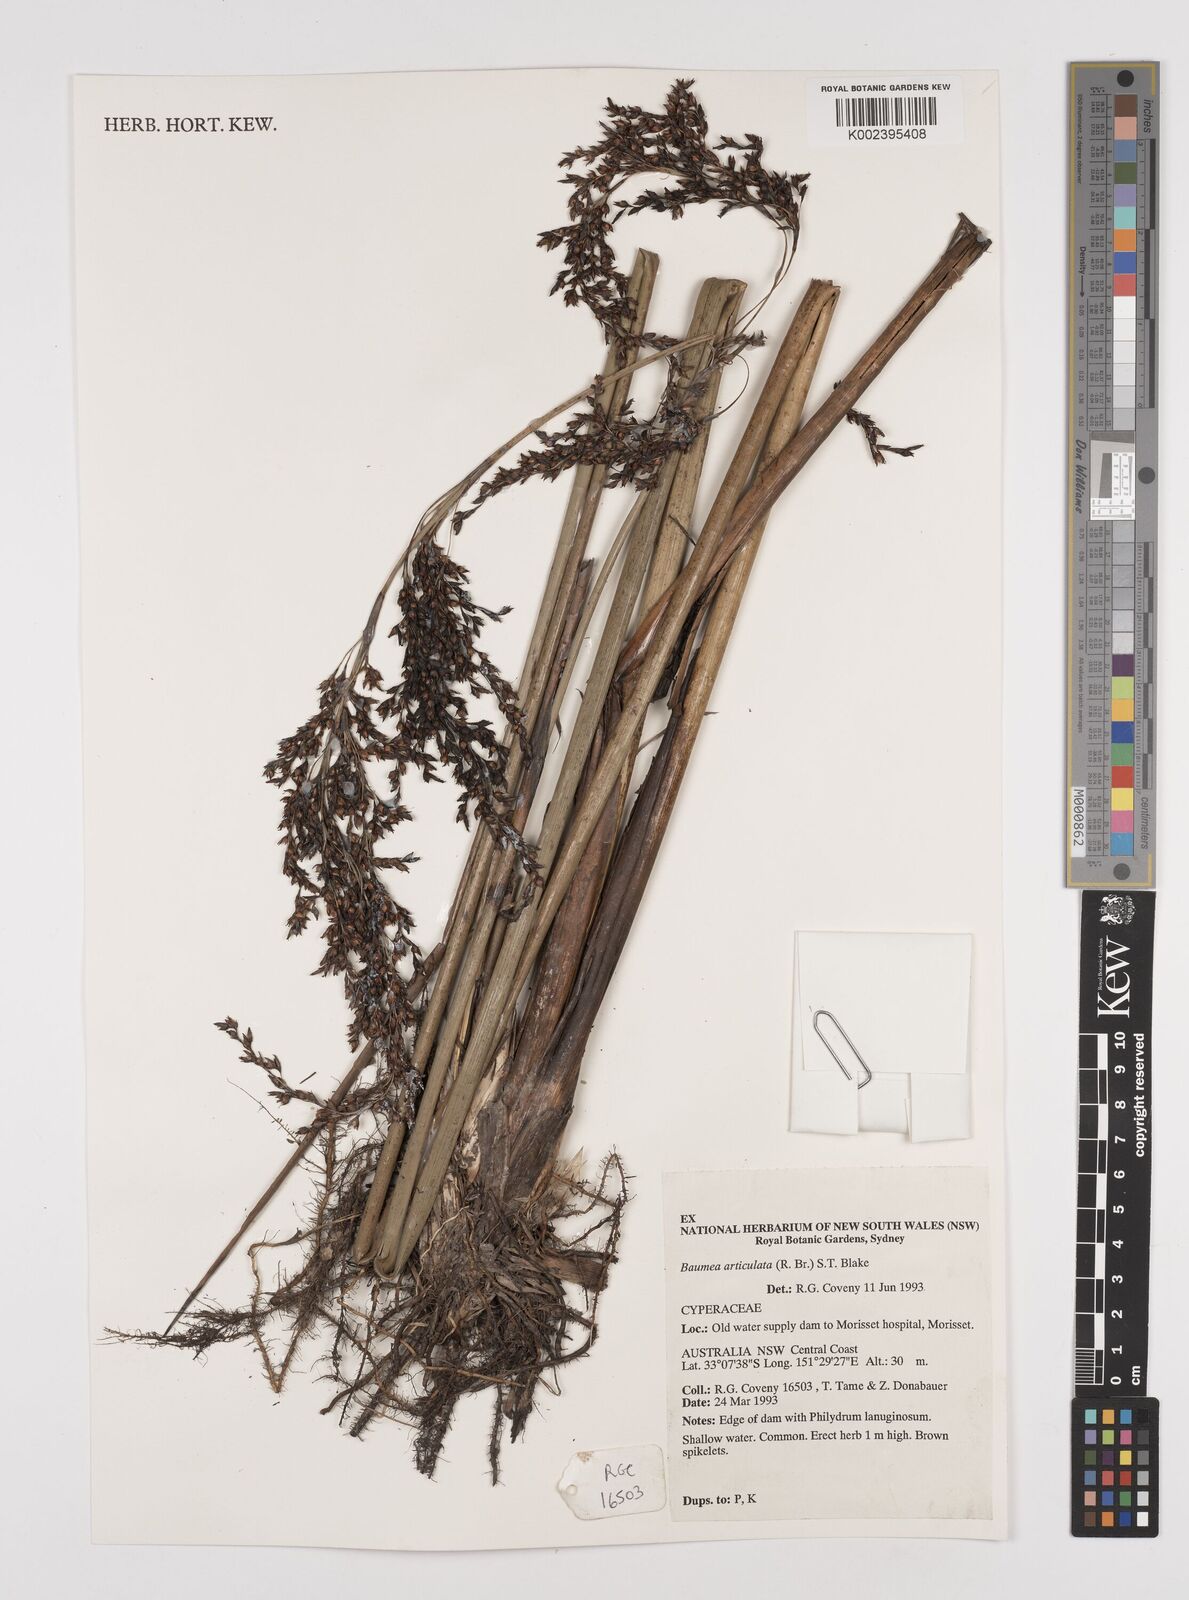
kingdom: Plantae
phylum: Tracheophyta
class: Liliopsida
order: Poales
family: Cyperaceae
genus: Machaerina
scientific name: Machaerina articulata
